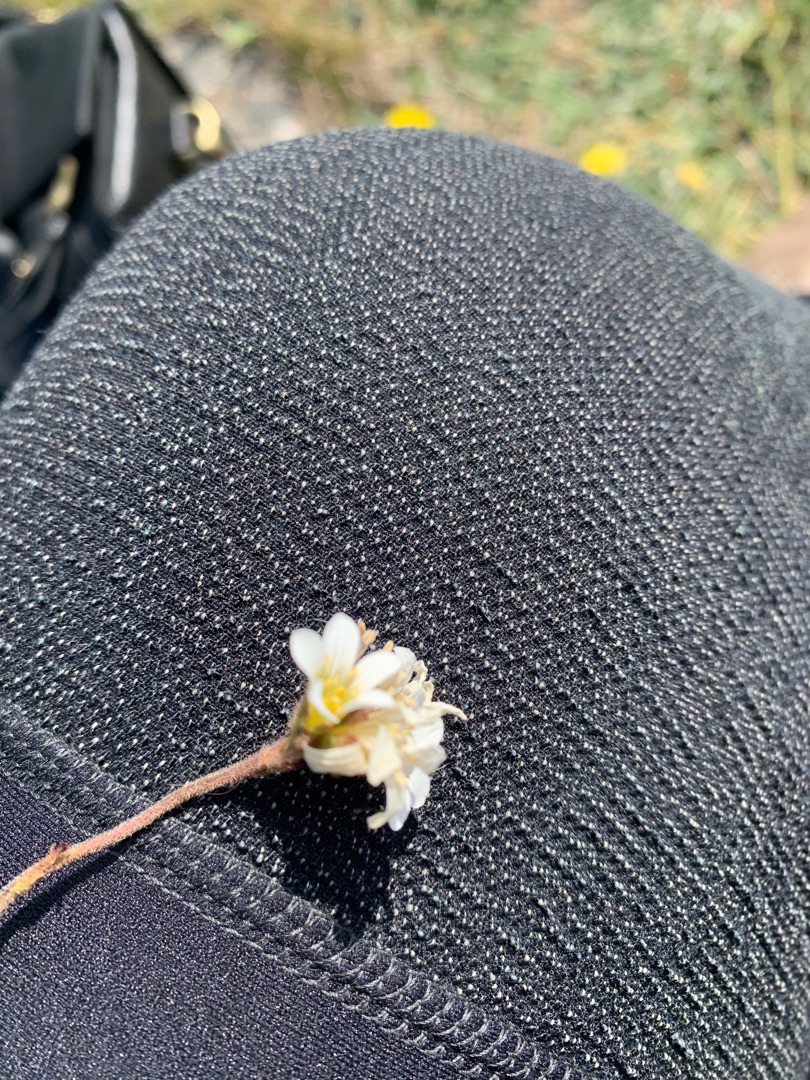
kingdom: Plantae
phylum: Tracheophyta
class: Magnoliopsida
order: Saxifragales
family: Saxifragaceae
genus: Saxifraga
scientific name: Saxifraga granulata
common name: Kornet stenbræk
